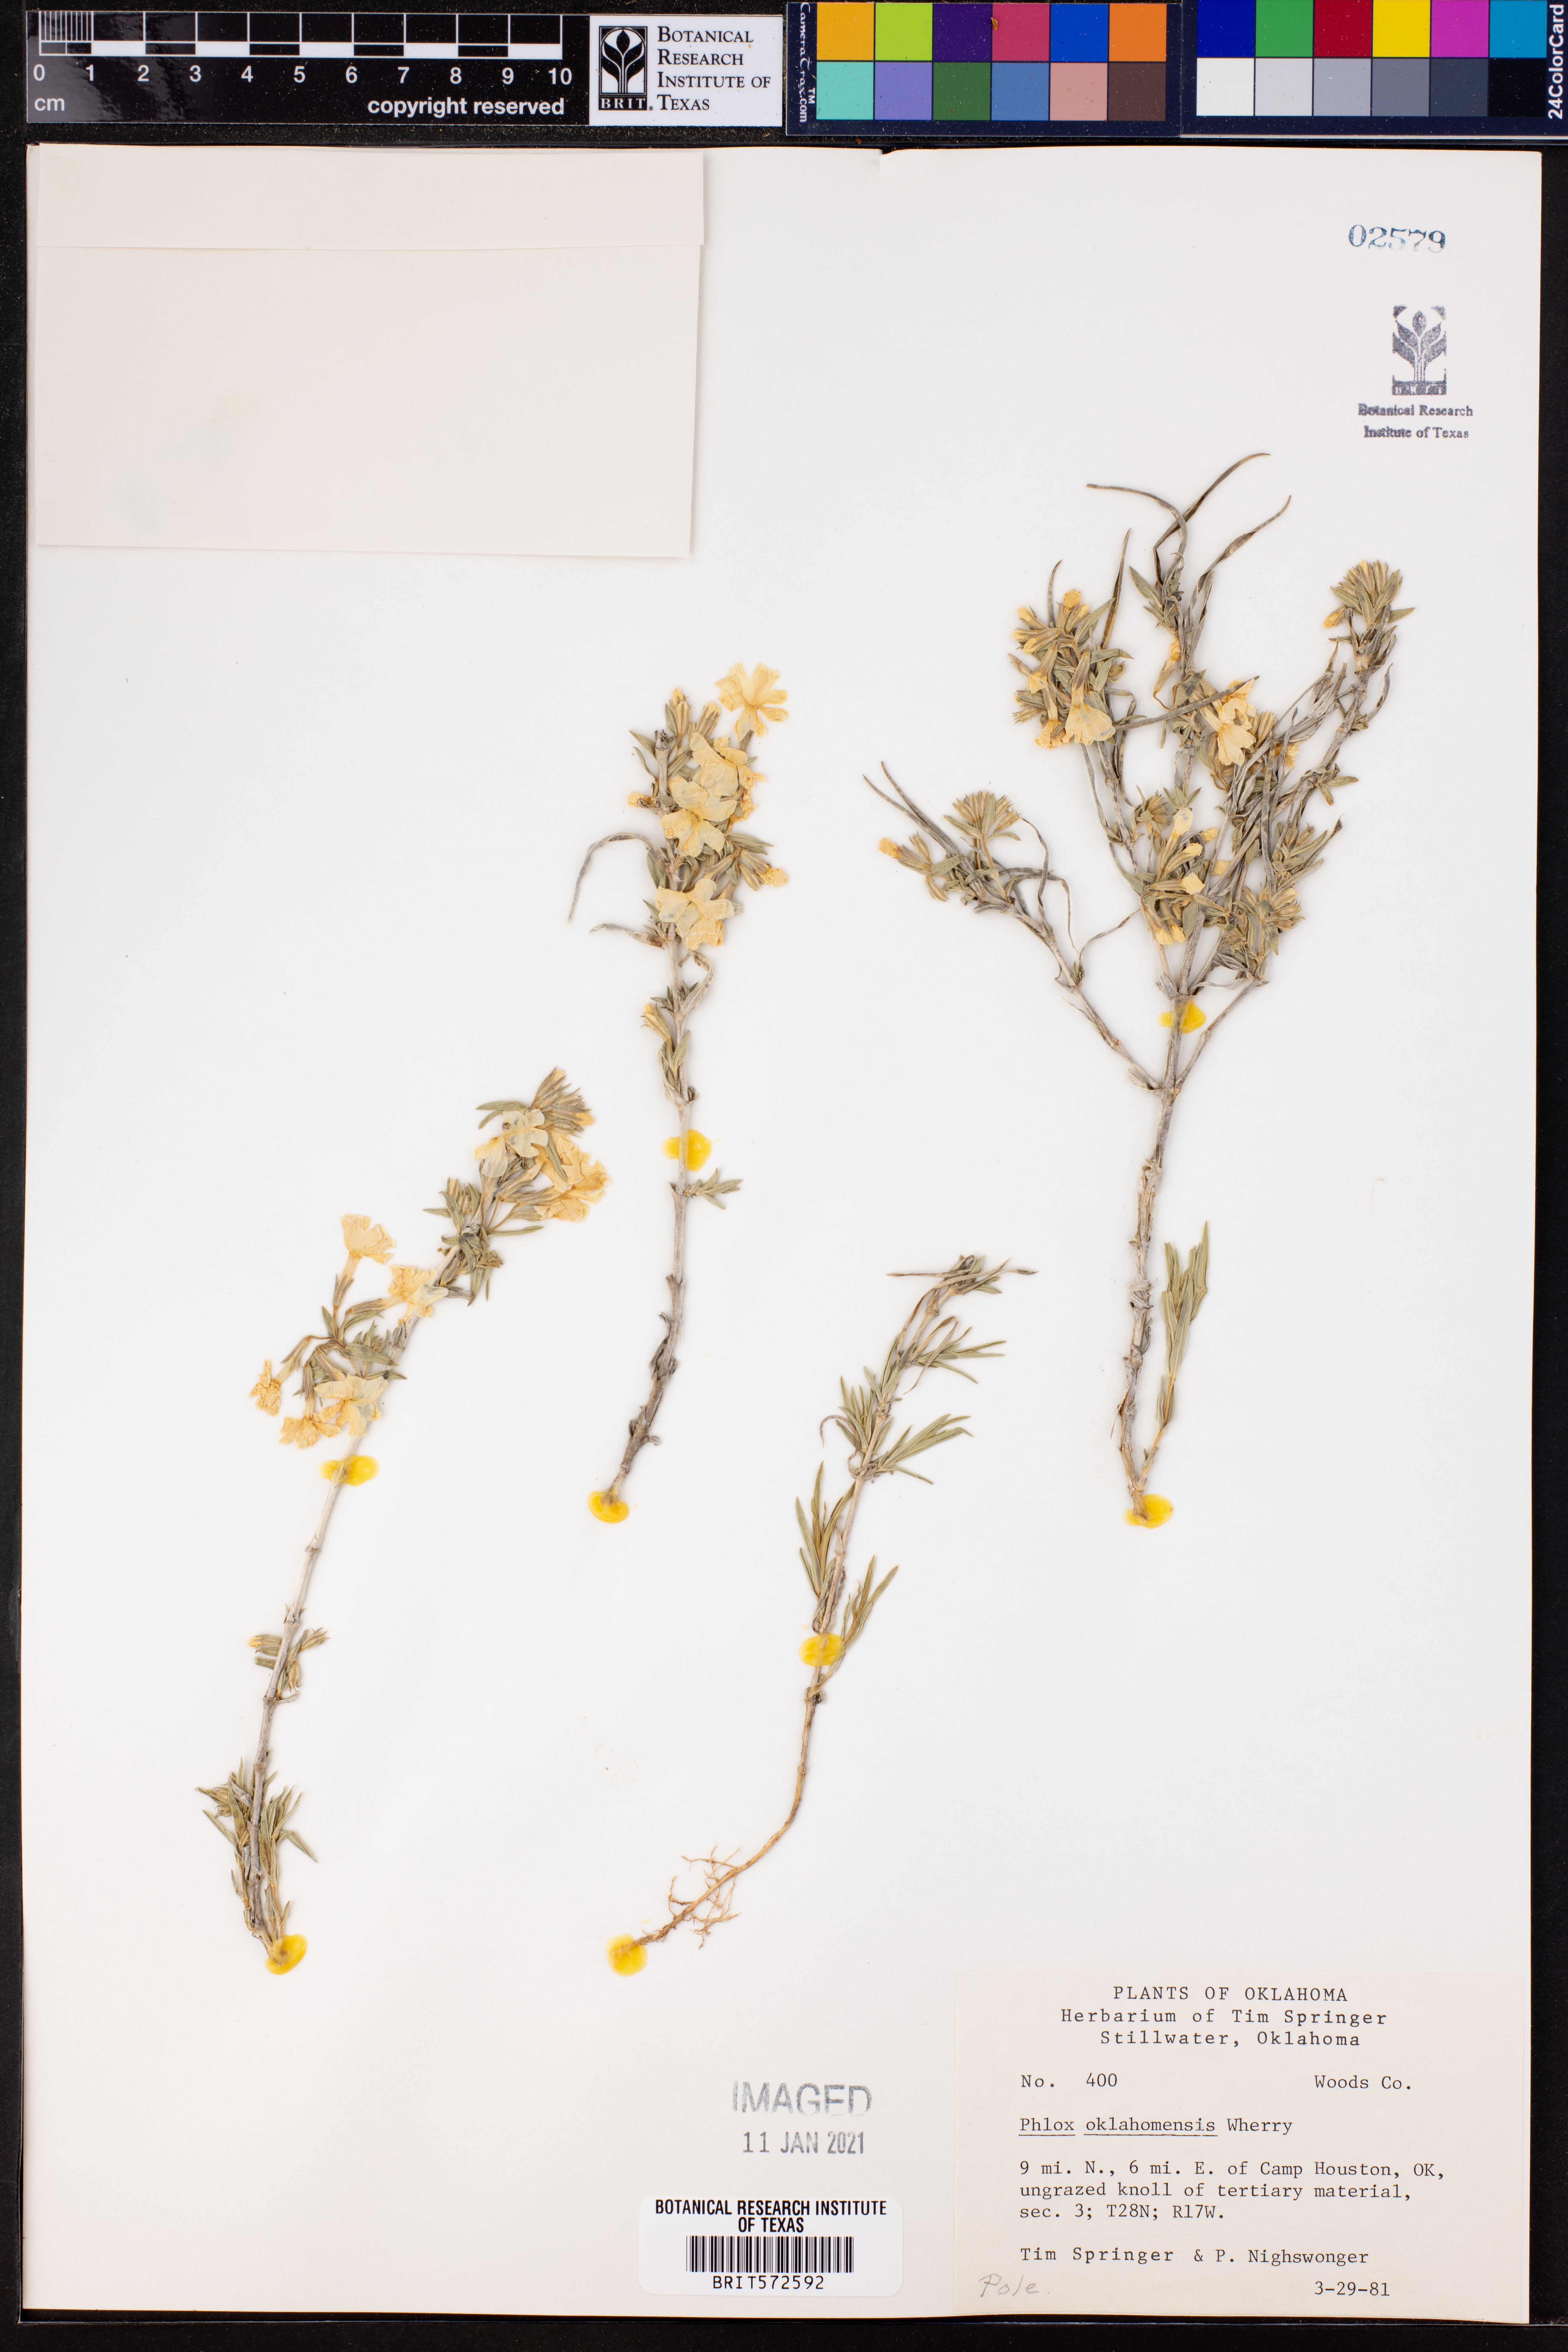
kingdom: Plantae
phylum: Tracheophyta
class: Magnoliopsida
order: Ericales
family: Polemoniaceae
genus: Phlox
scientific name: Phlox oklahomensis
